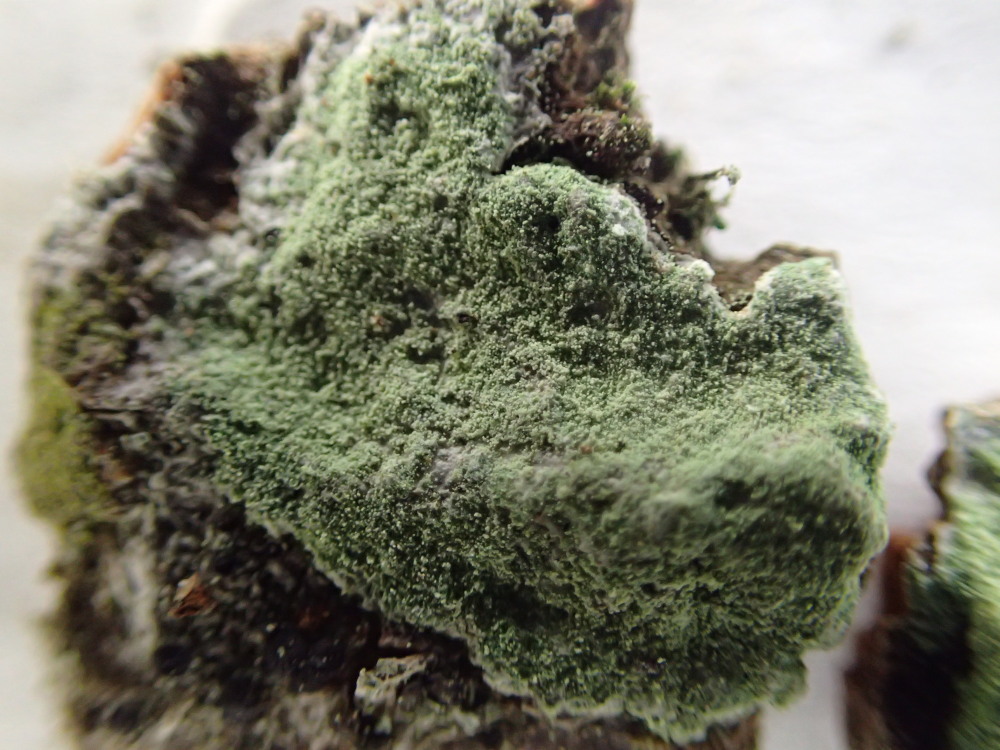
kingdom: Fungi
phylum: Ascomycota
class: Lecanoromycetes
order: Lecanorales
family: Haematommataceae
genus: Haematomma
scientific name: Haematomma ochroleucum
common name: gul trådkantlav
